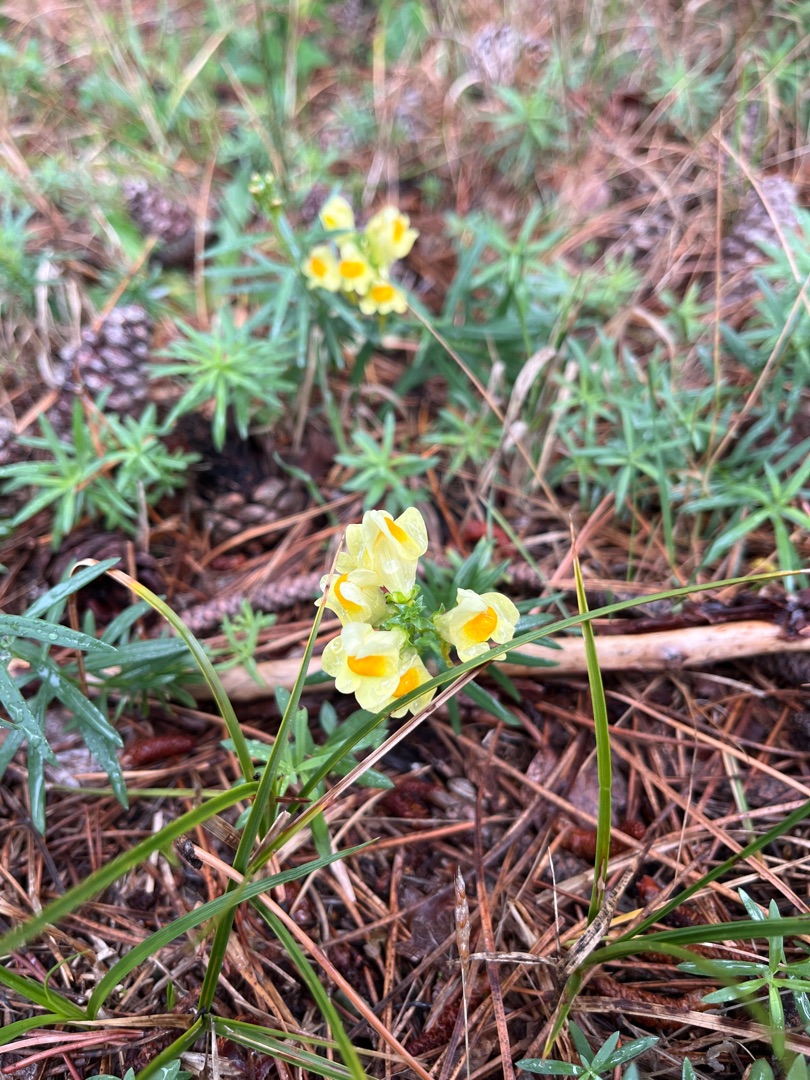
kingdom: Plantae
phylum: Tracheophyta
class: Magnoliopsida
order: Lamiales
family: Plantaginaceae
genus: Linaria
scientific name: Linaria vulgaris
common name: Almindelig torskemund
